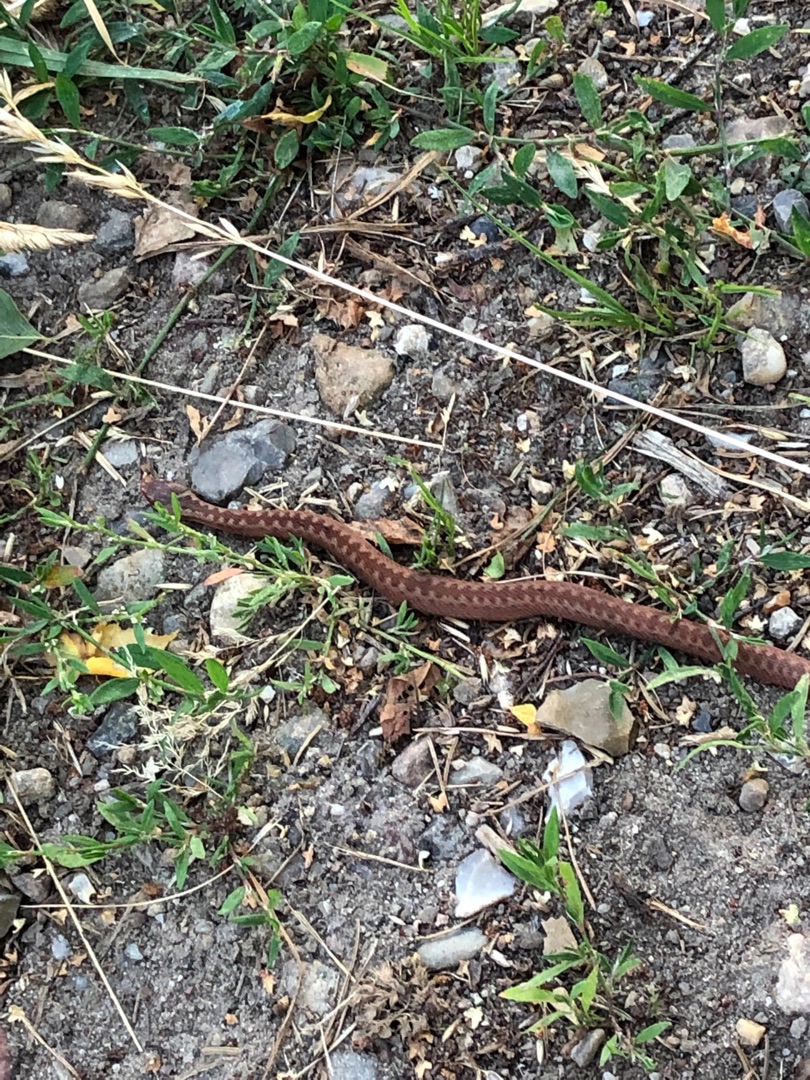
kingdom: Animalia
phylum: Chordata
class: Squamata
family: Viperidae
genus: Vipera
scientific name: Vipera berus
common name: Hugorm
